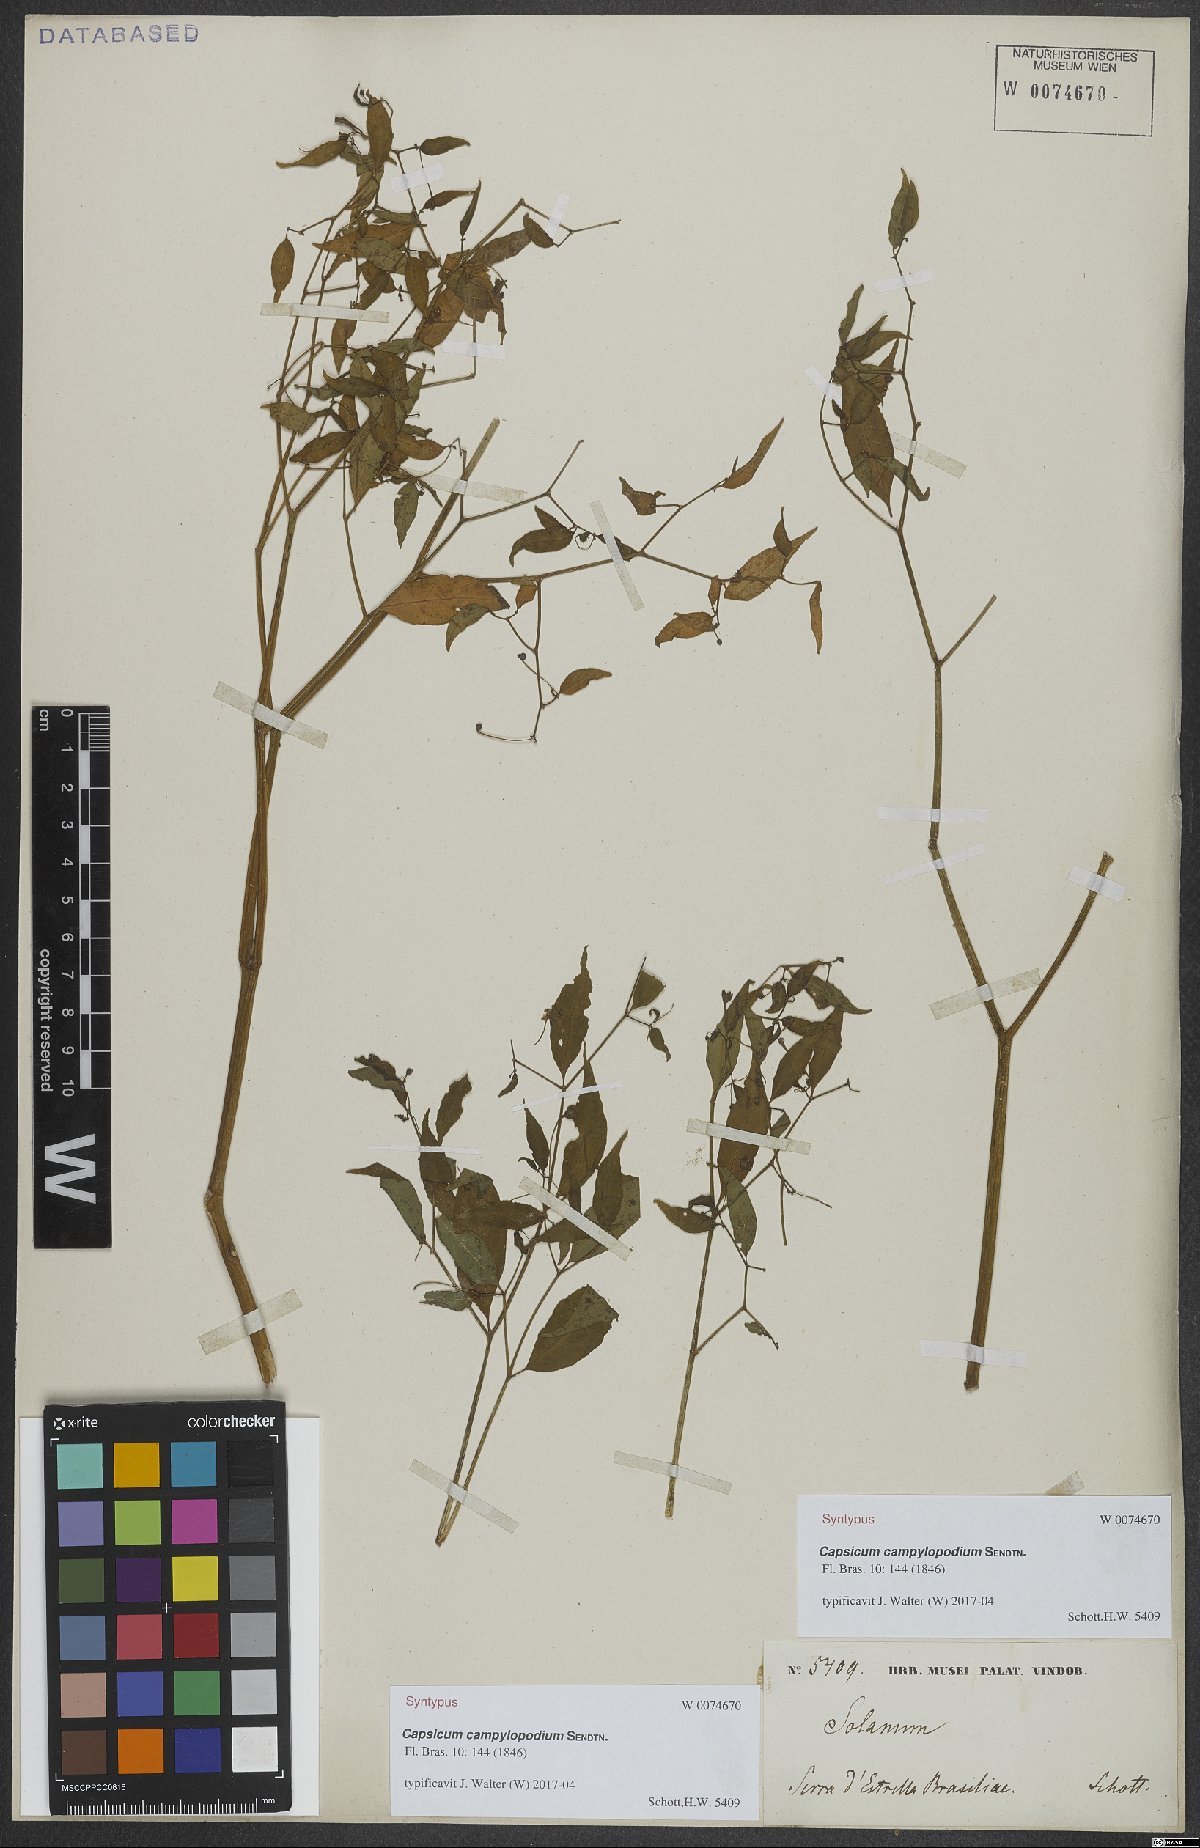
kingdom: Plantae
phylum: Tracheophyta
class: Magnoliopsida
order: Solanales
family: Solanaceae
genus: Capsicum
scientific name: Capsicum campylopodium
